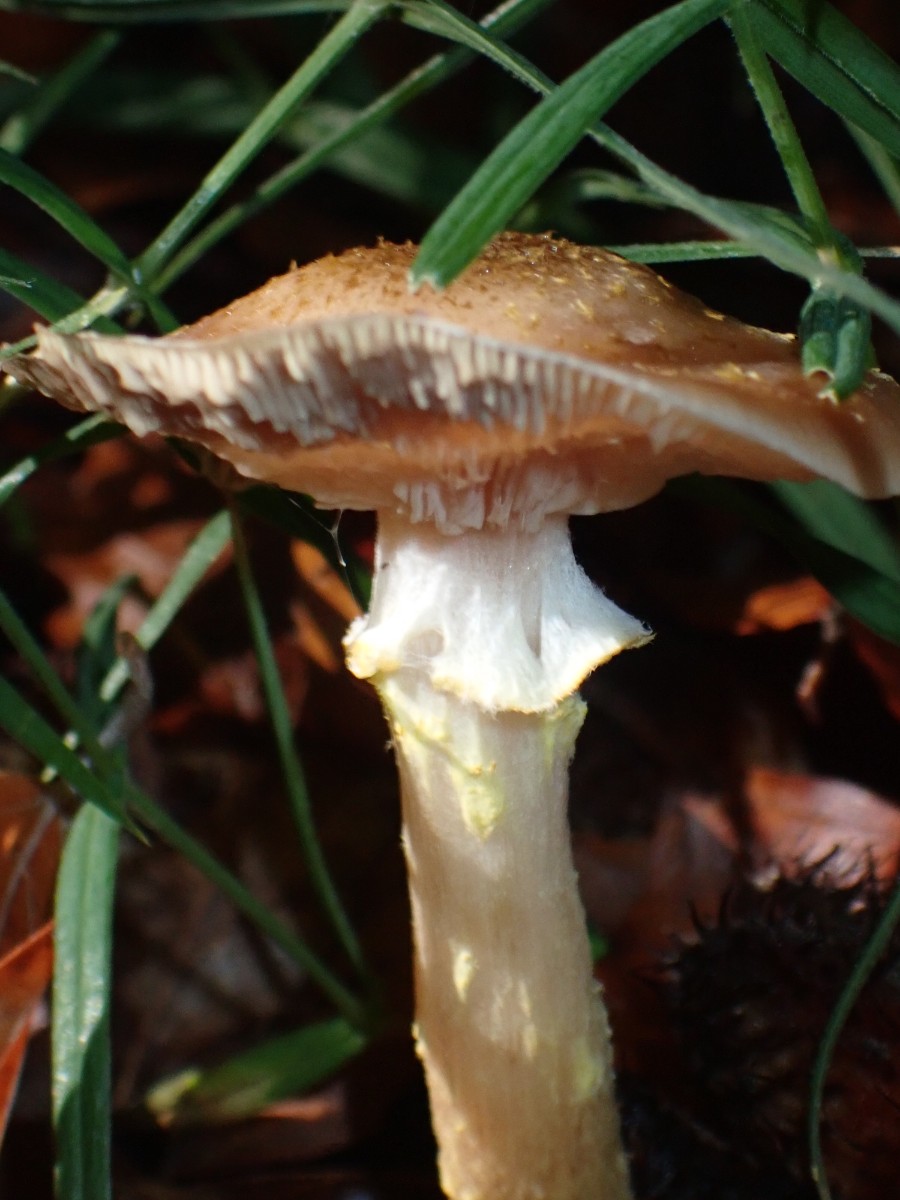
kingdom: Fungi
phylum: Basidiomycota
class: Agaricomycetes
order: Agaricales
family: Physalacriaceae
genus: Armillaria
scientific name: Armillaria lutea
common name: køllestokket honningsvamp
